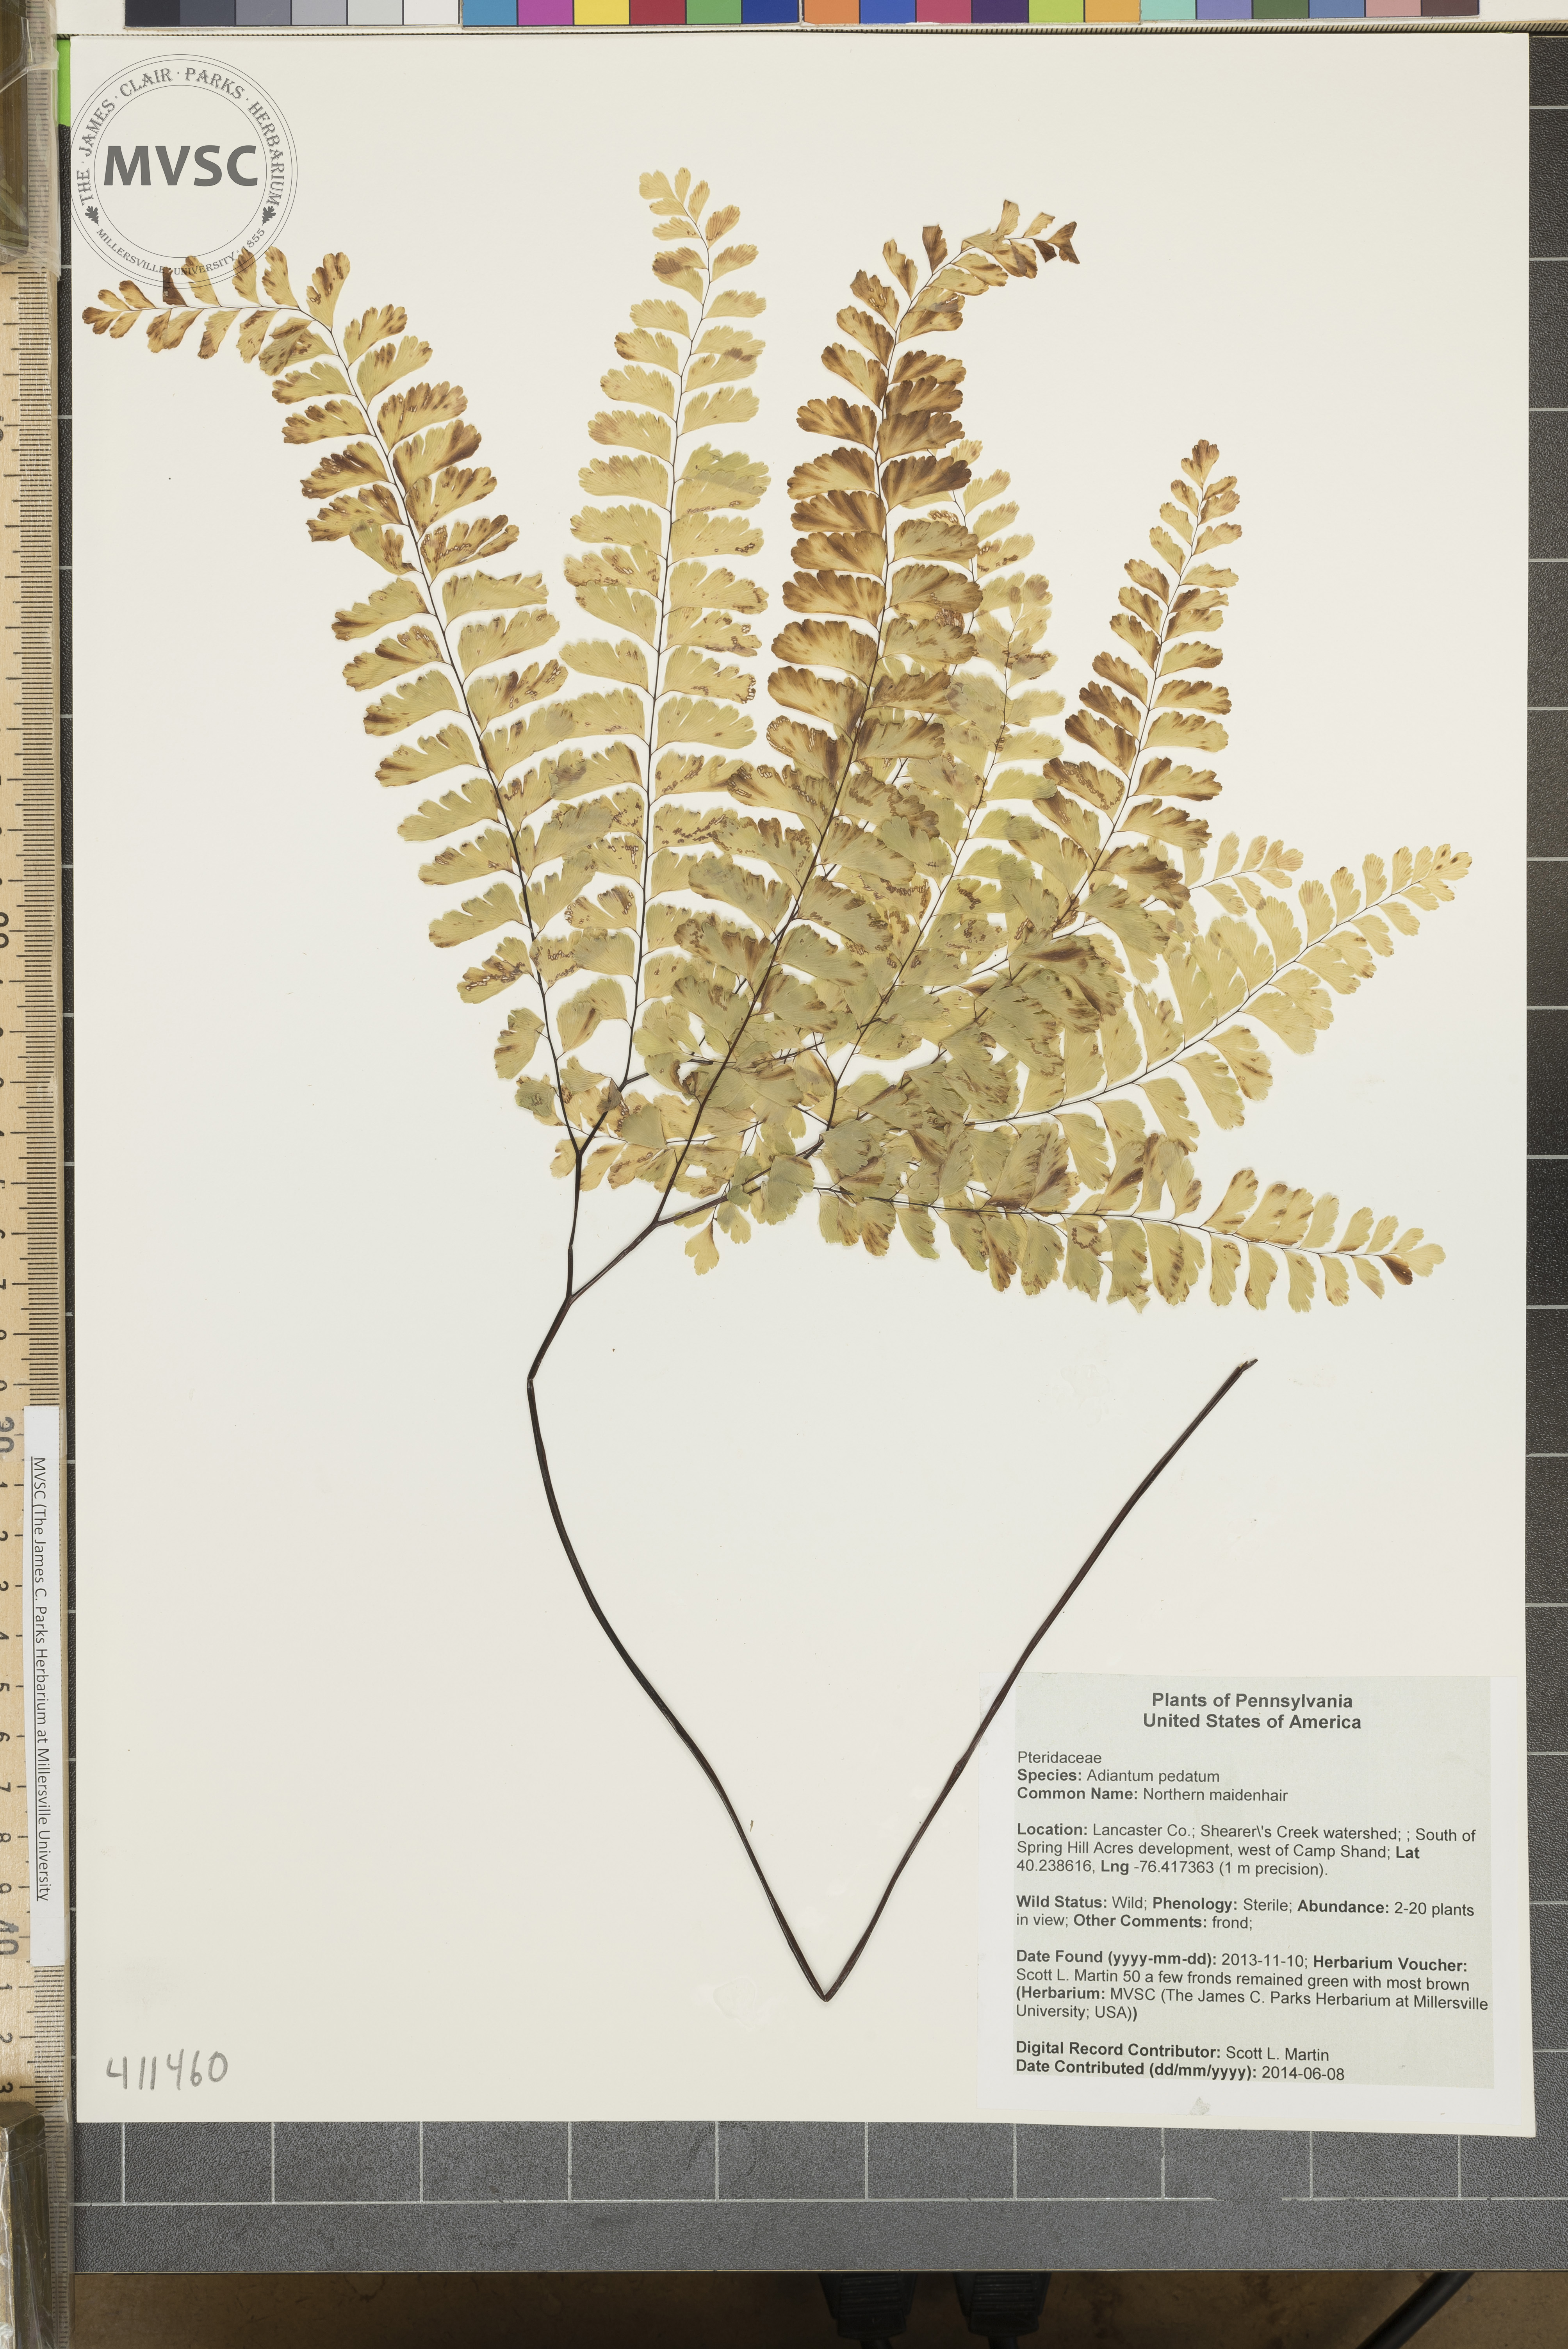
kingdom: Plantae
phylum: Tracheophyta
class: Polypodiopsida
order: Polypodiales
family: Pteridaceae
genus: Adiantum
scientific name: Adiantum pedatum
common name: Northern maidenhair
